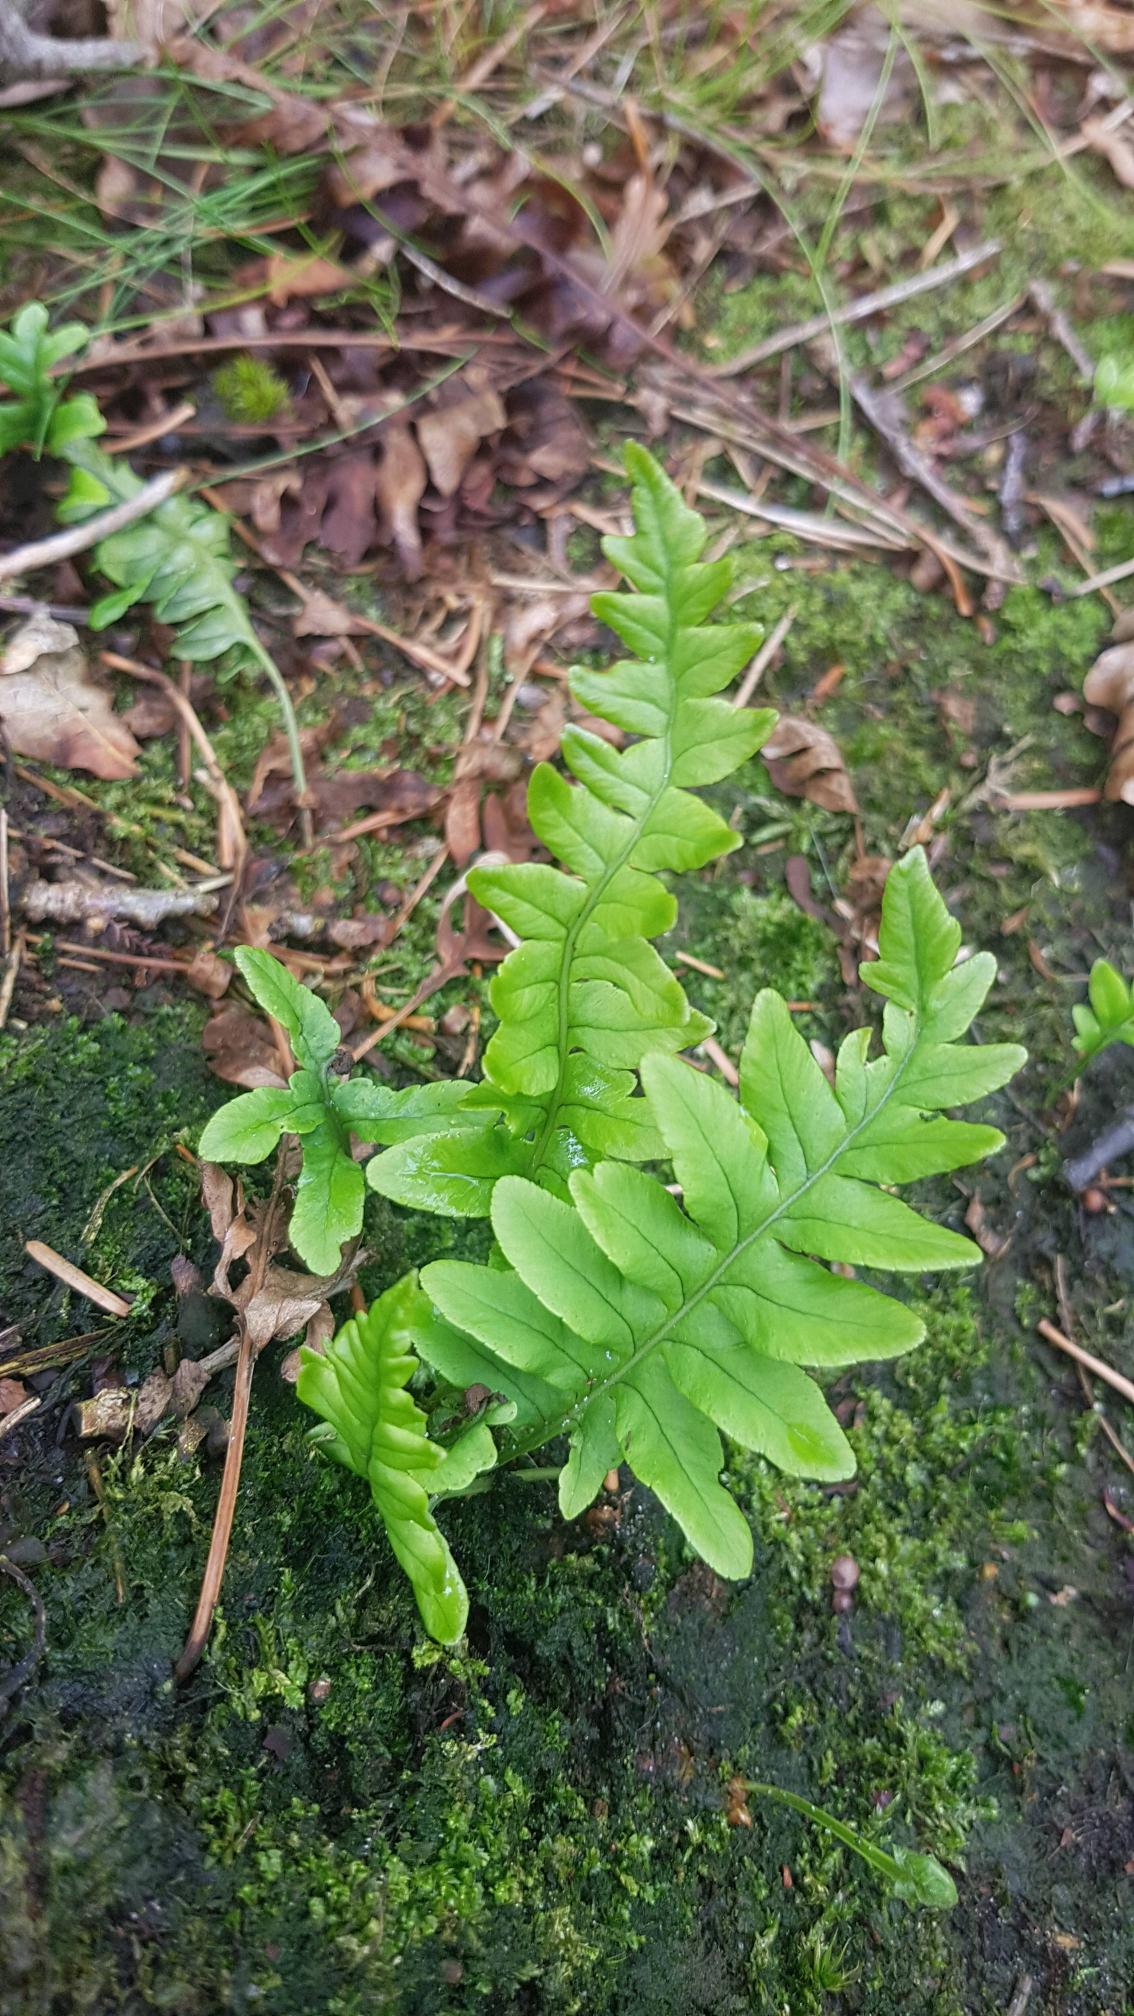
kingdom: Plantae
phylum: Tracheophyta
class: Polypodiopsida
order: Polypodiales
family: Polypodiaceae
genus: Polypodium
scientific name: Polypodium vulgare
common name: Almindelig engelsød
